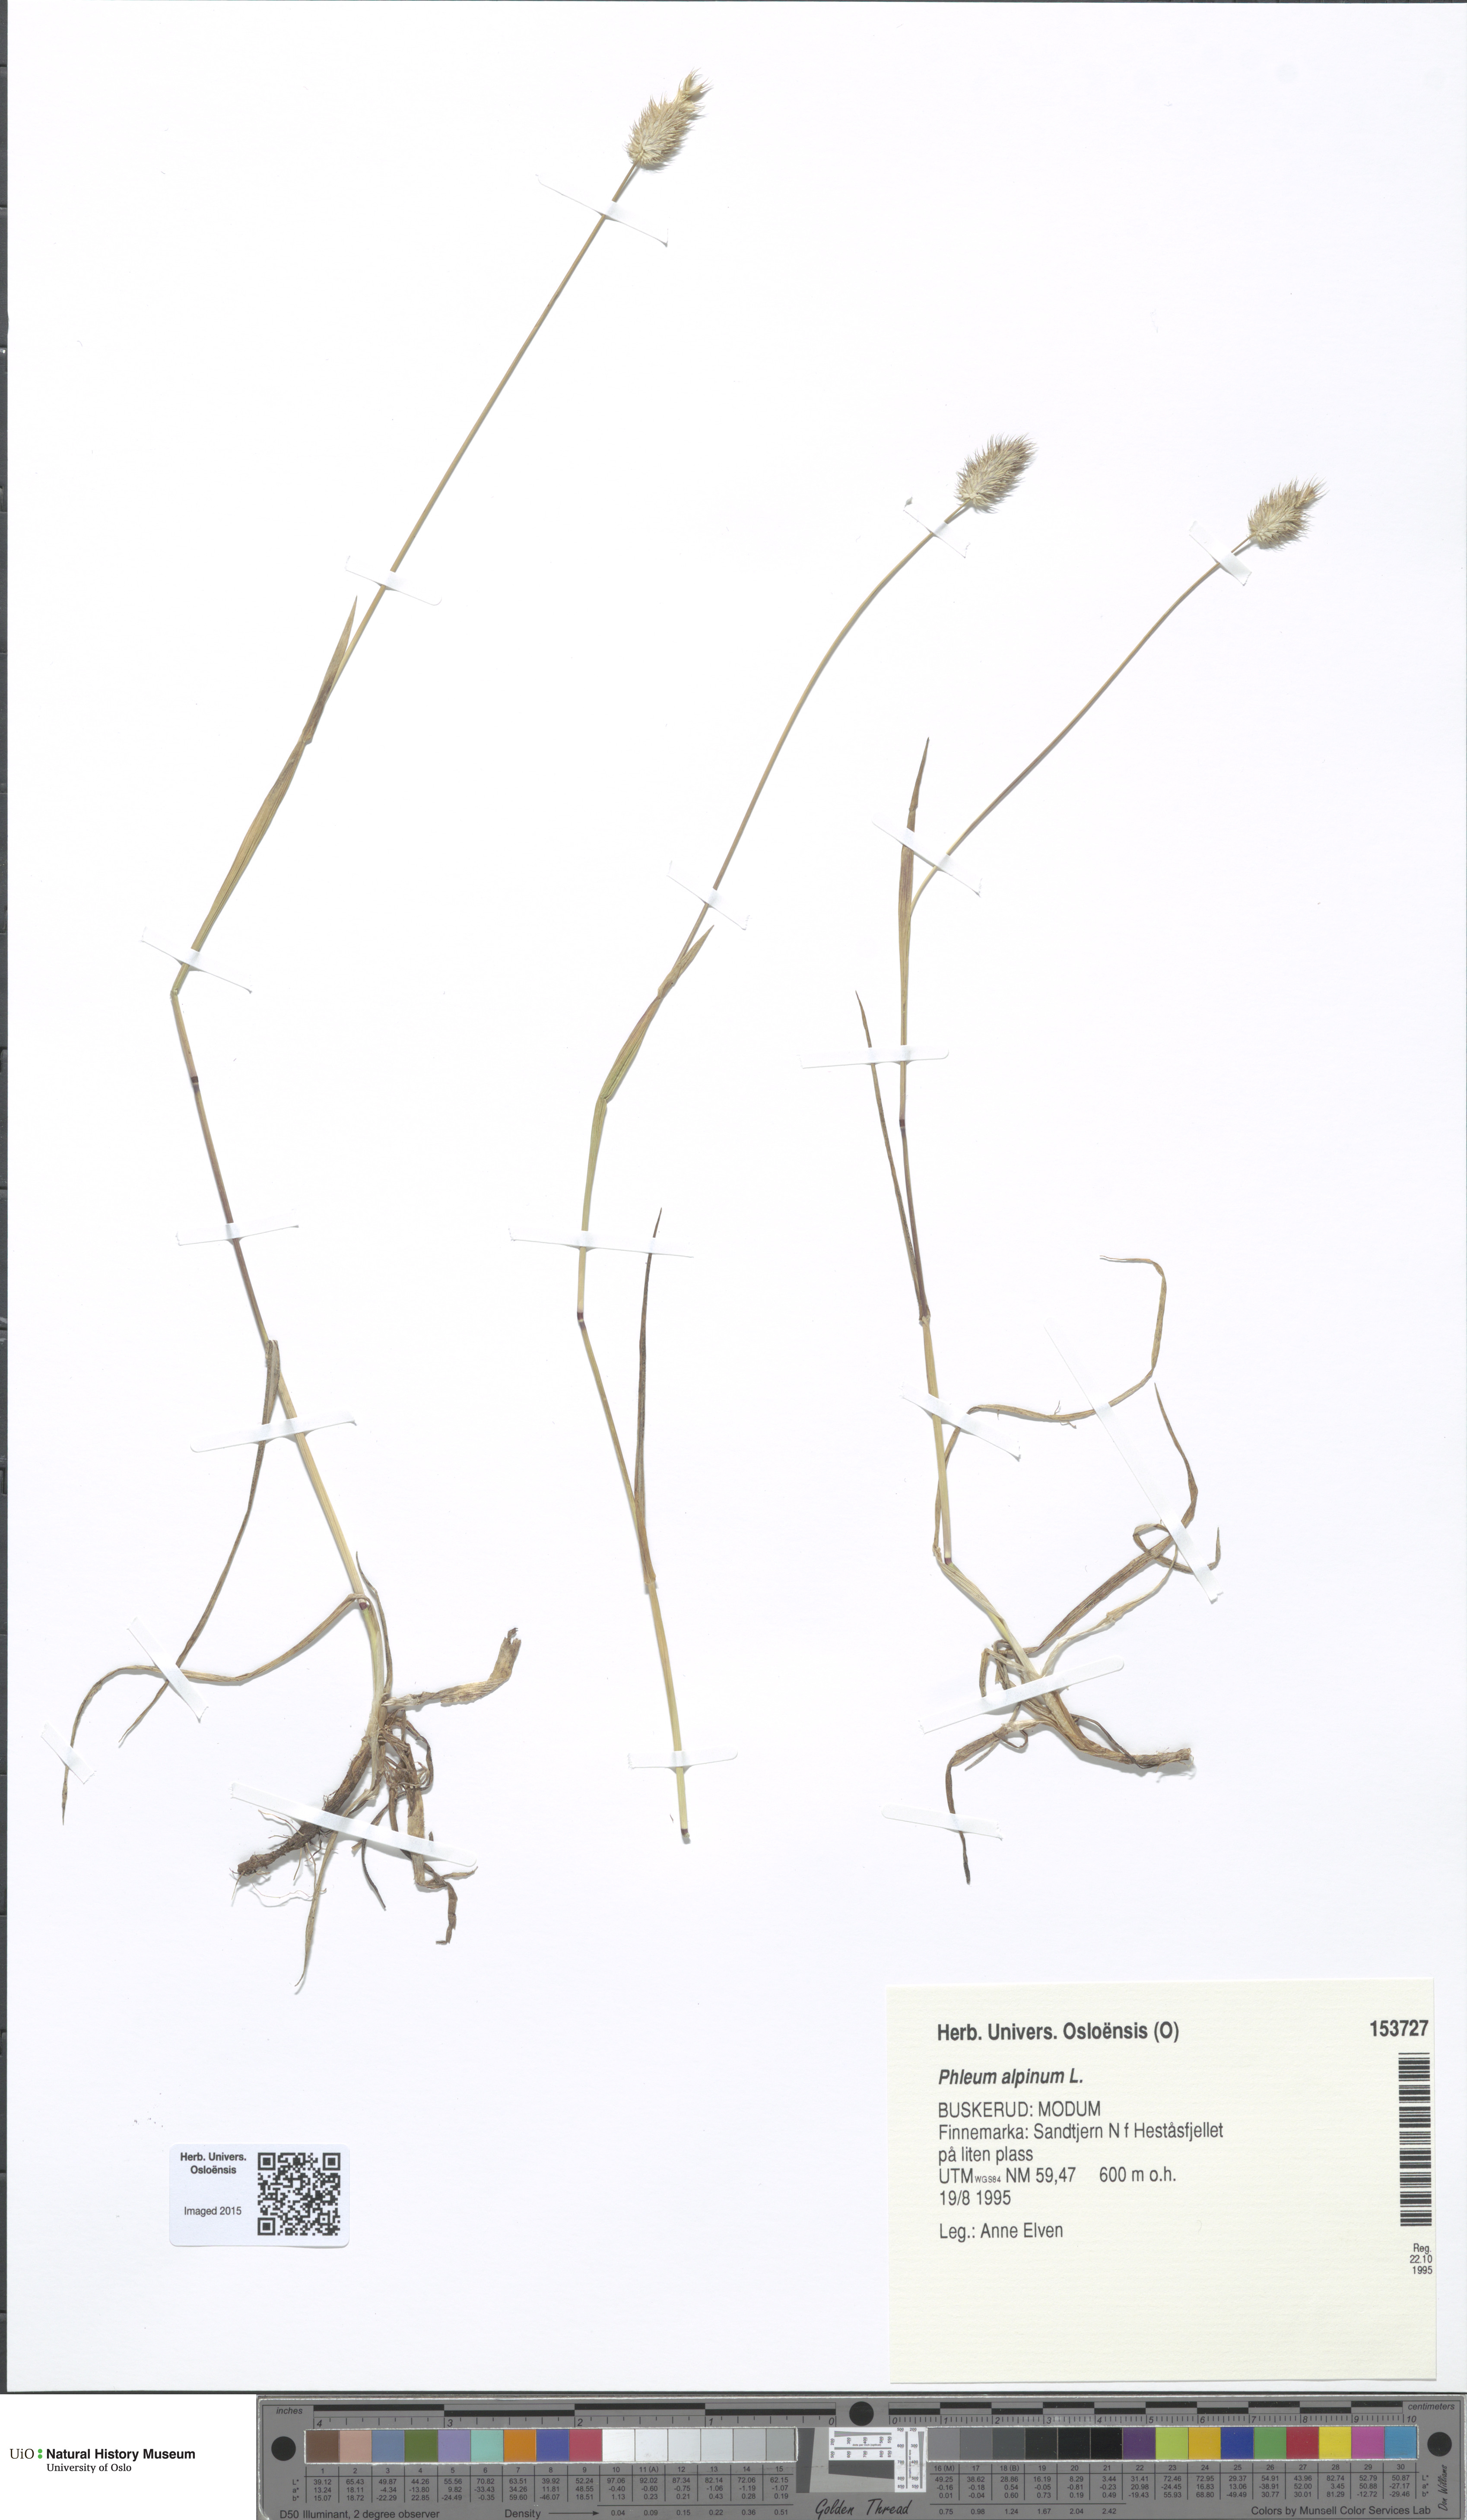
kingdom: Plantae
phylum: Tracheophyta
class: Liliopsida
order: Poales
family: Poaceae
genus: Phleum
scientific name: Phleum alpinum
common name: Alpine cat's-tail
